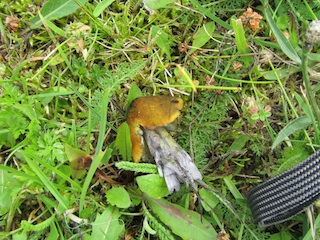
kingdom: Fungi
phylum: Basidiomycota
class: Agaricomycetes
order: Agaricales
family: Hygrophoraceae
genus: Hygrocybe
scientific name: Hygrocybe conica
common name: kegle-vokshat
